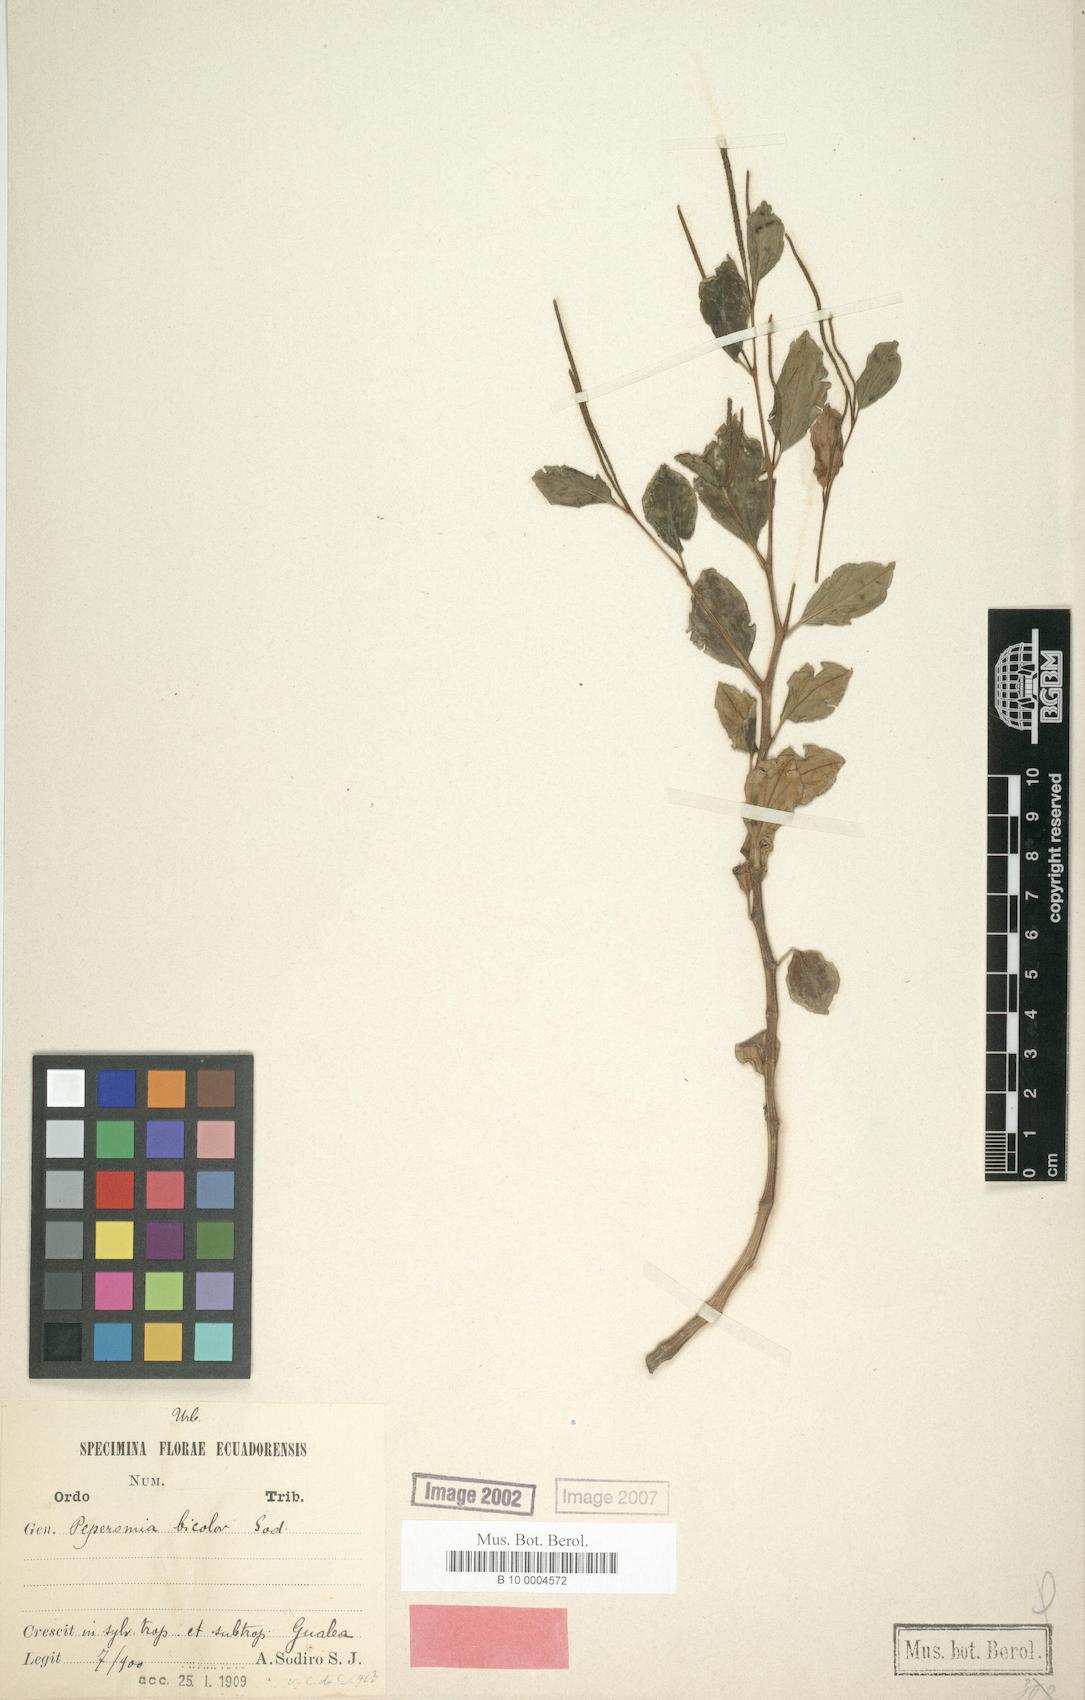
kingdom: Plantae
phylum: Tracheophyta
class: Magnoliopsida
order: Piperales
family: Piperaceae
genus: Peperomia
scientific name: Peperomia bicolor
